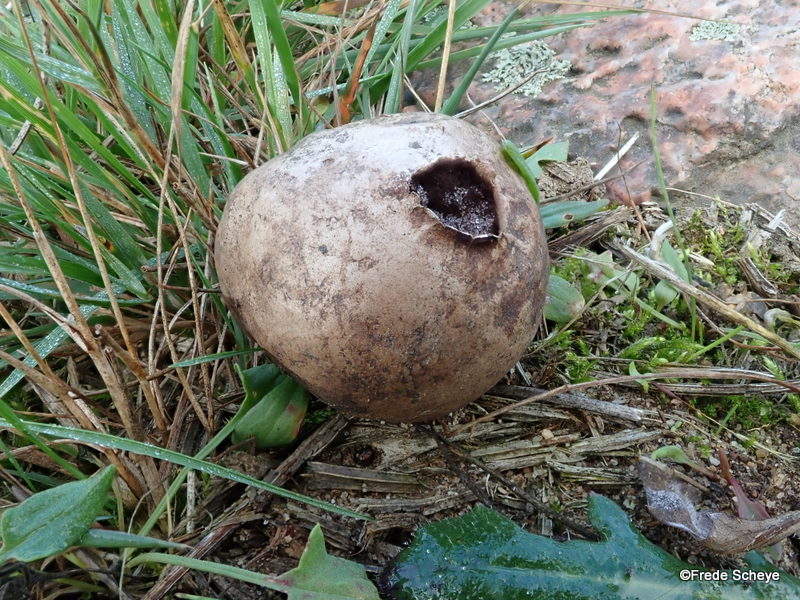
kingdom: Fungi
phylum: Basidiomycota
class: Agaricomycetes
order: Agaricales
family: Lycoperdaceae
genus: Bovista
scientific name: Bovista nigrescens
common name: sortagtig bovist
